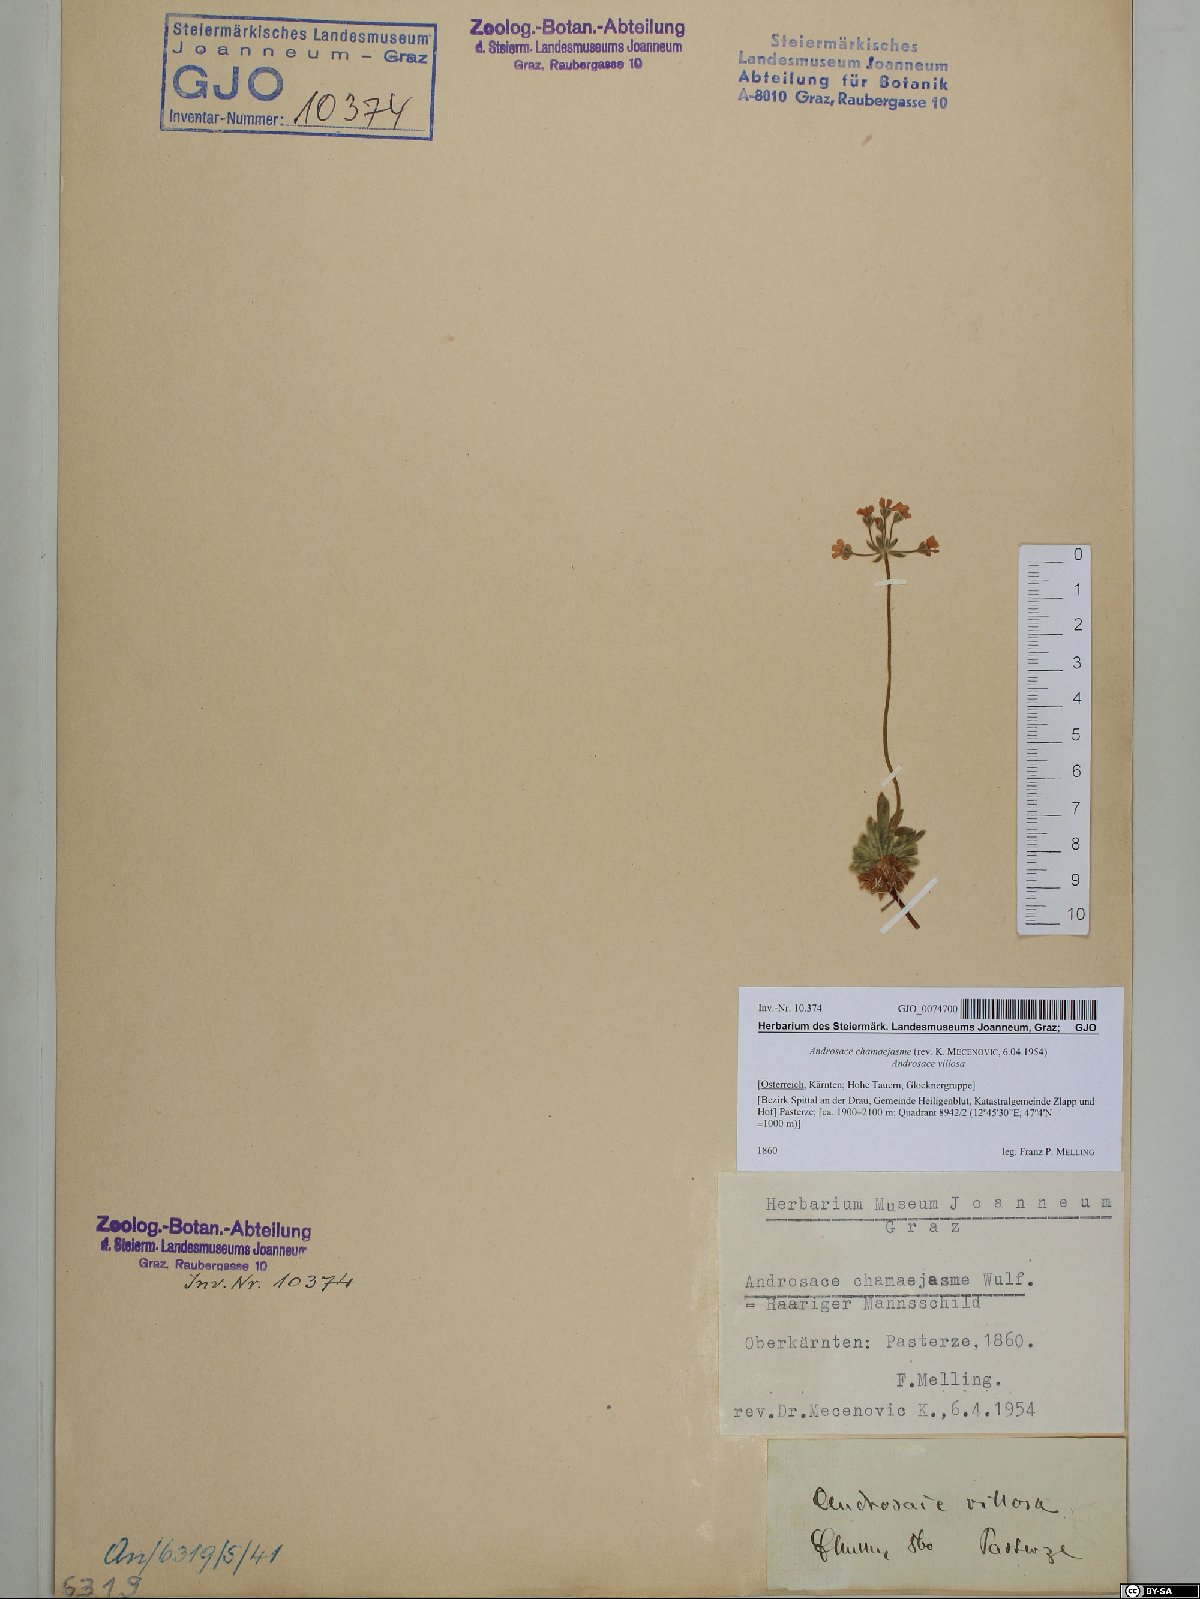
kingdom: Plantae
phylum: Tracheophyta
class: Magnoliopsida
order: Ericales
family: Primulaceae
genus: Androsace
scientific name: Androsace chamaejasme
